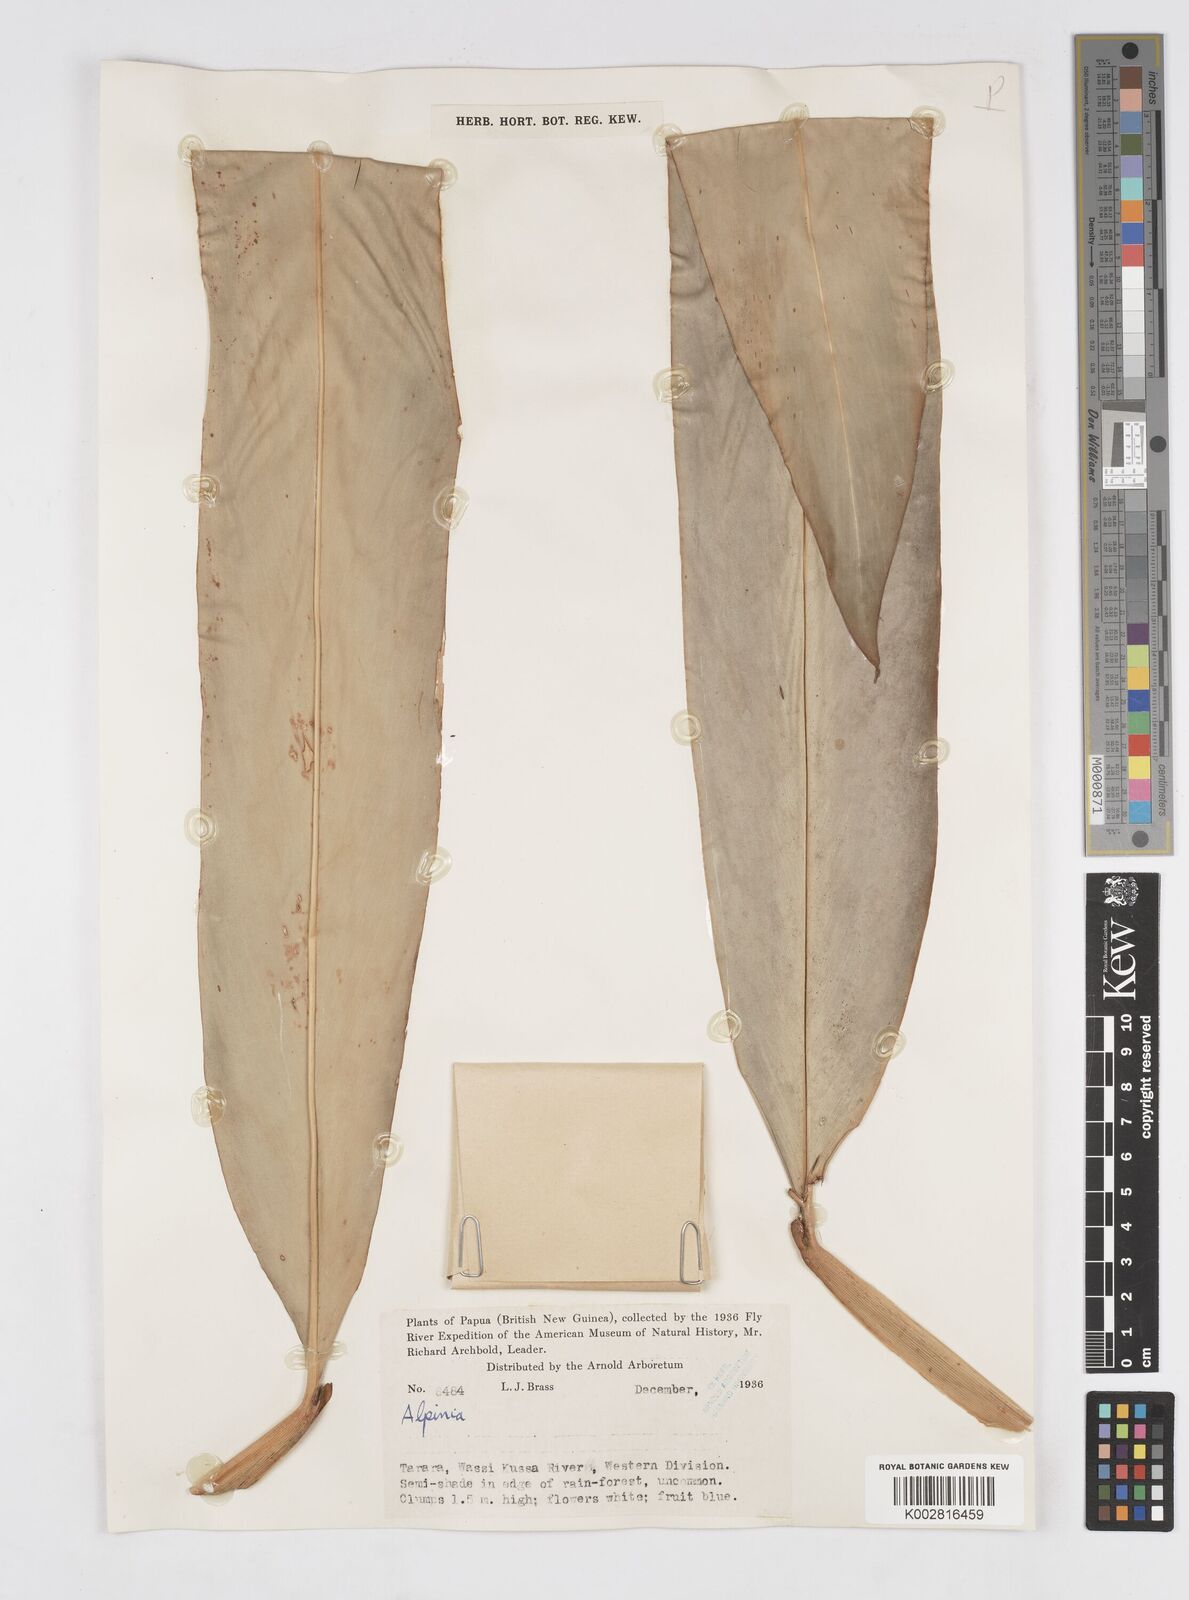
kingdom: Plantae
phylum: Tracheophyta
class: Liliopsida
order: Zingiberales
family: Zingiberaceae
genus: Alpinia
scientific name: Alpinia
